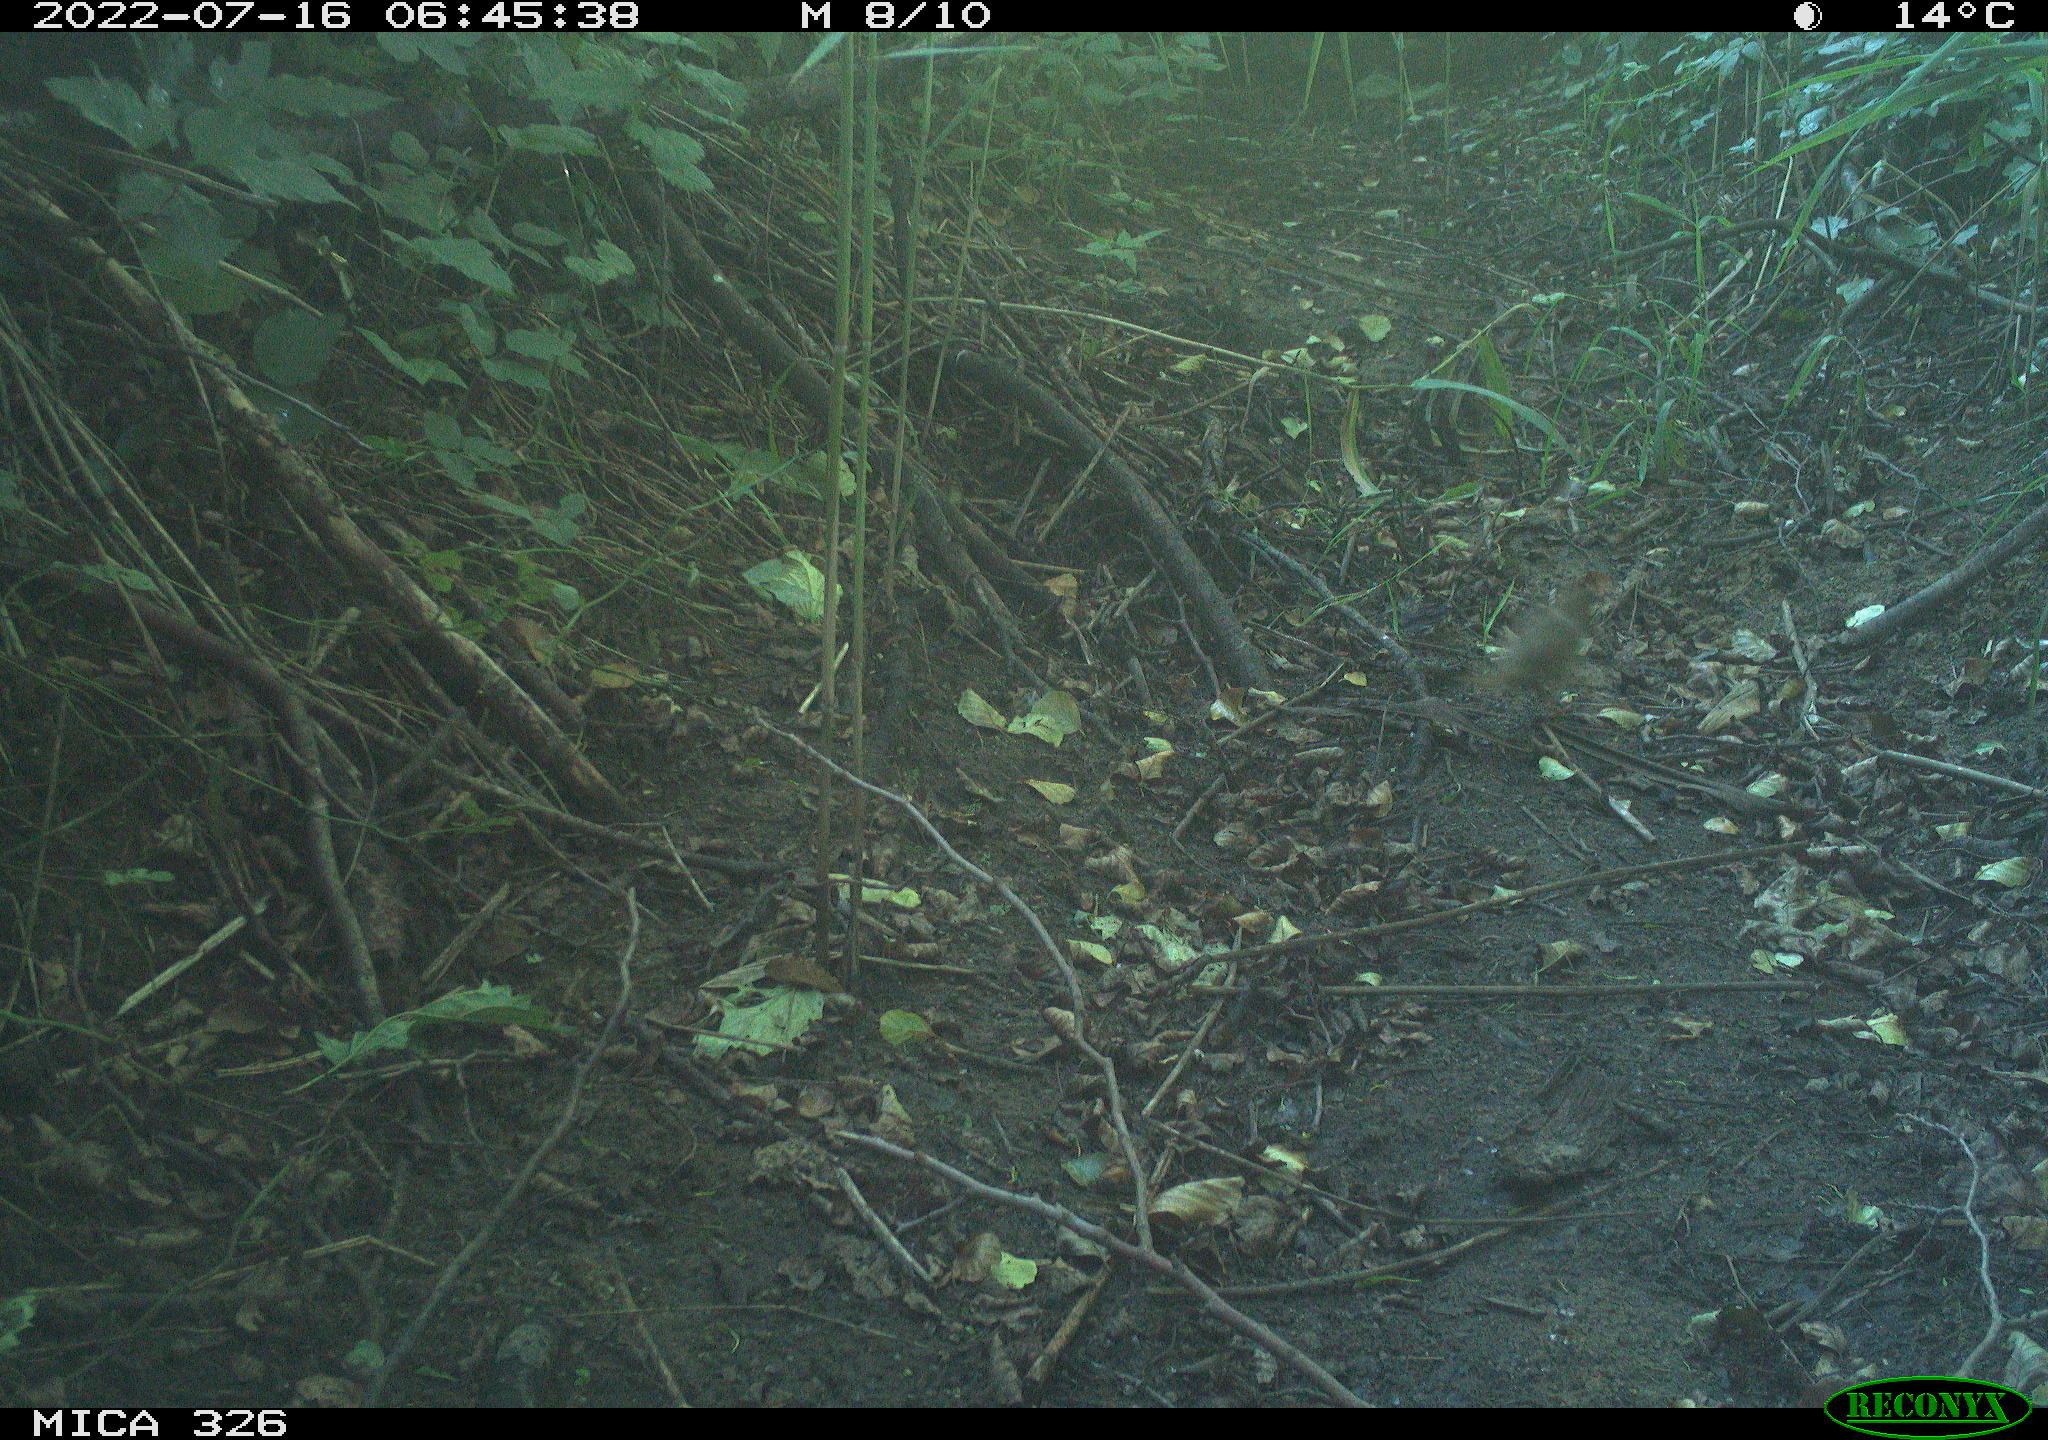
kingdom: Animalia
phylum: Chordata
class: Aves
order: Passeriformes
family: Turdidae
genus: Turdus
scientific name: Turdus philomelos
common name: Song thrush
